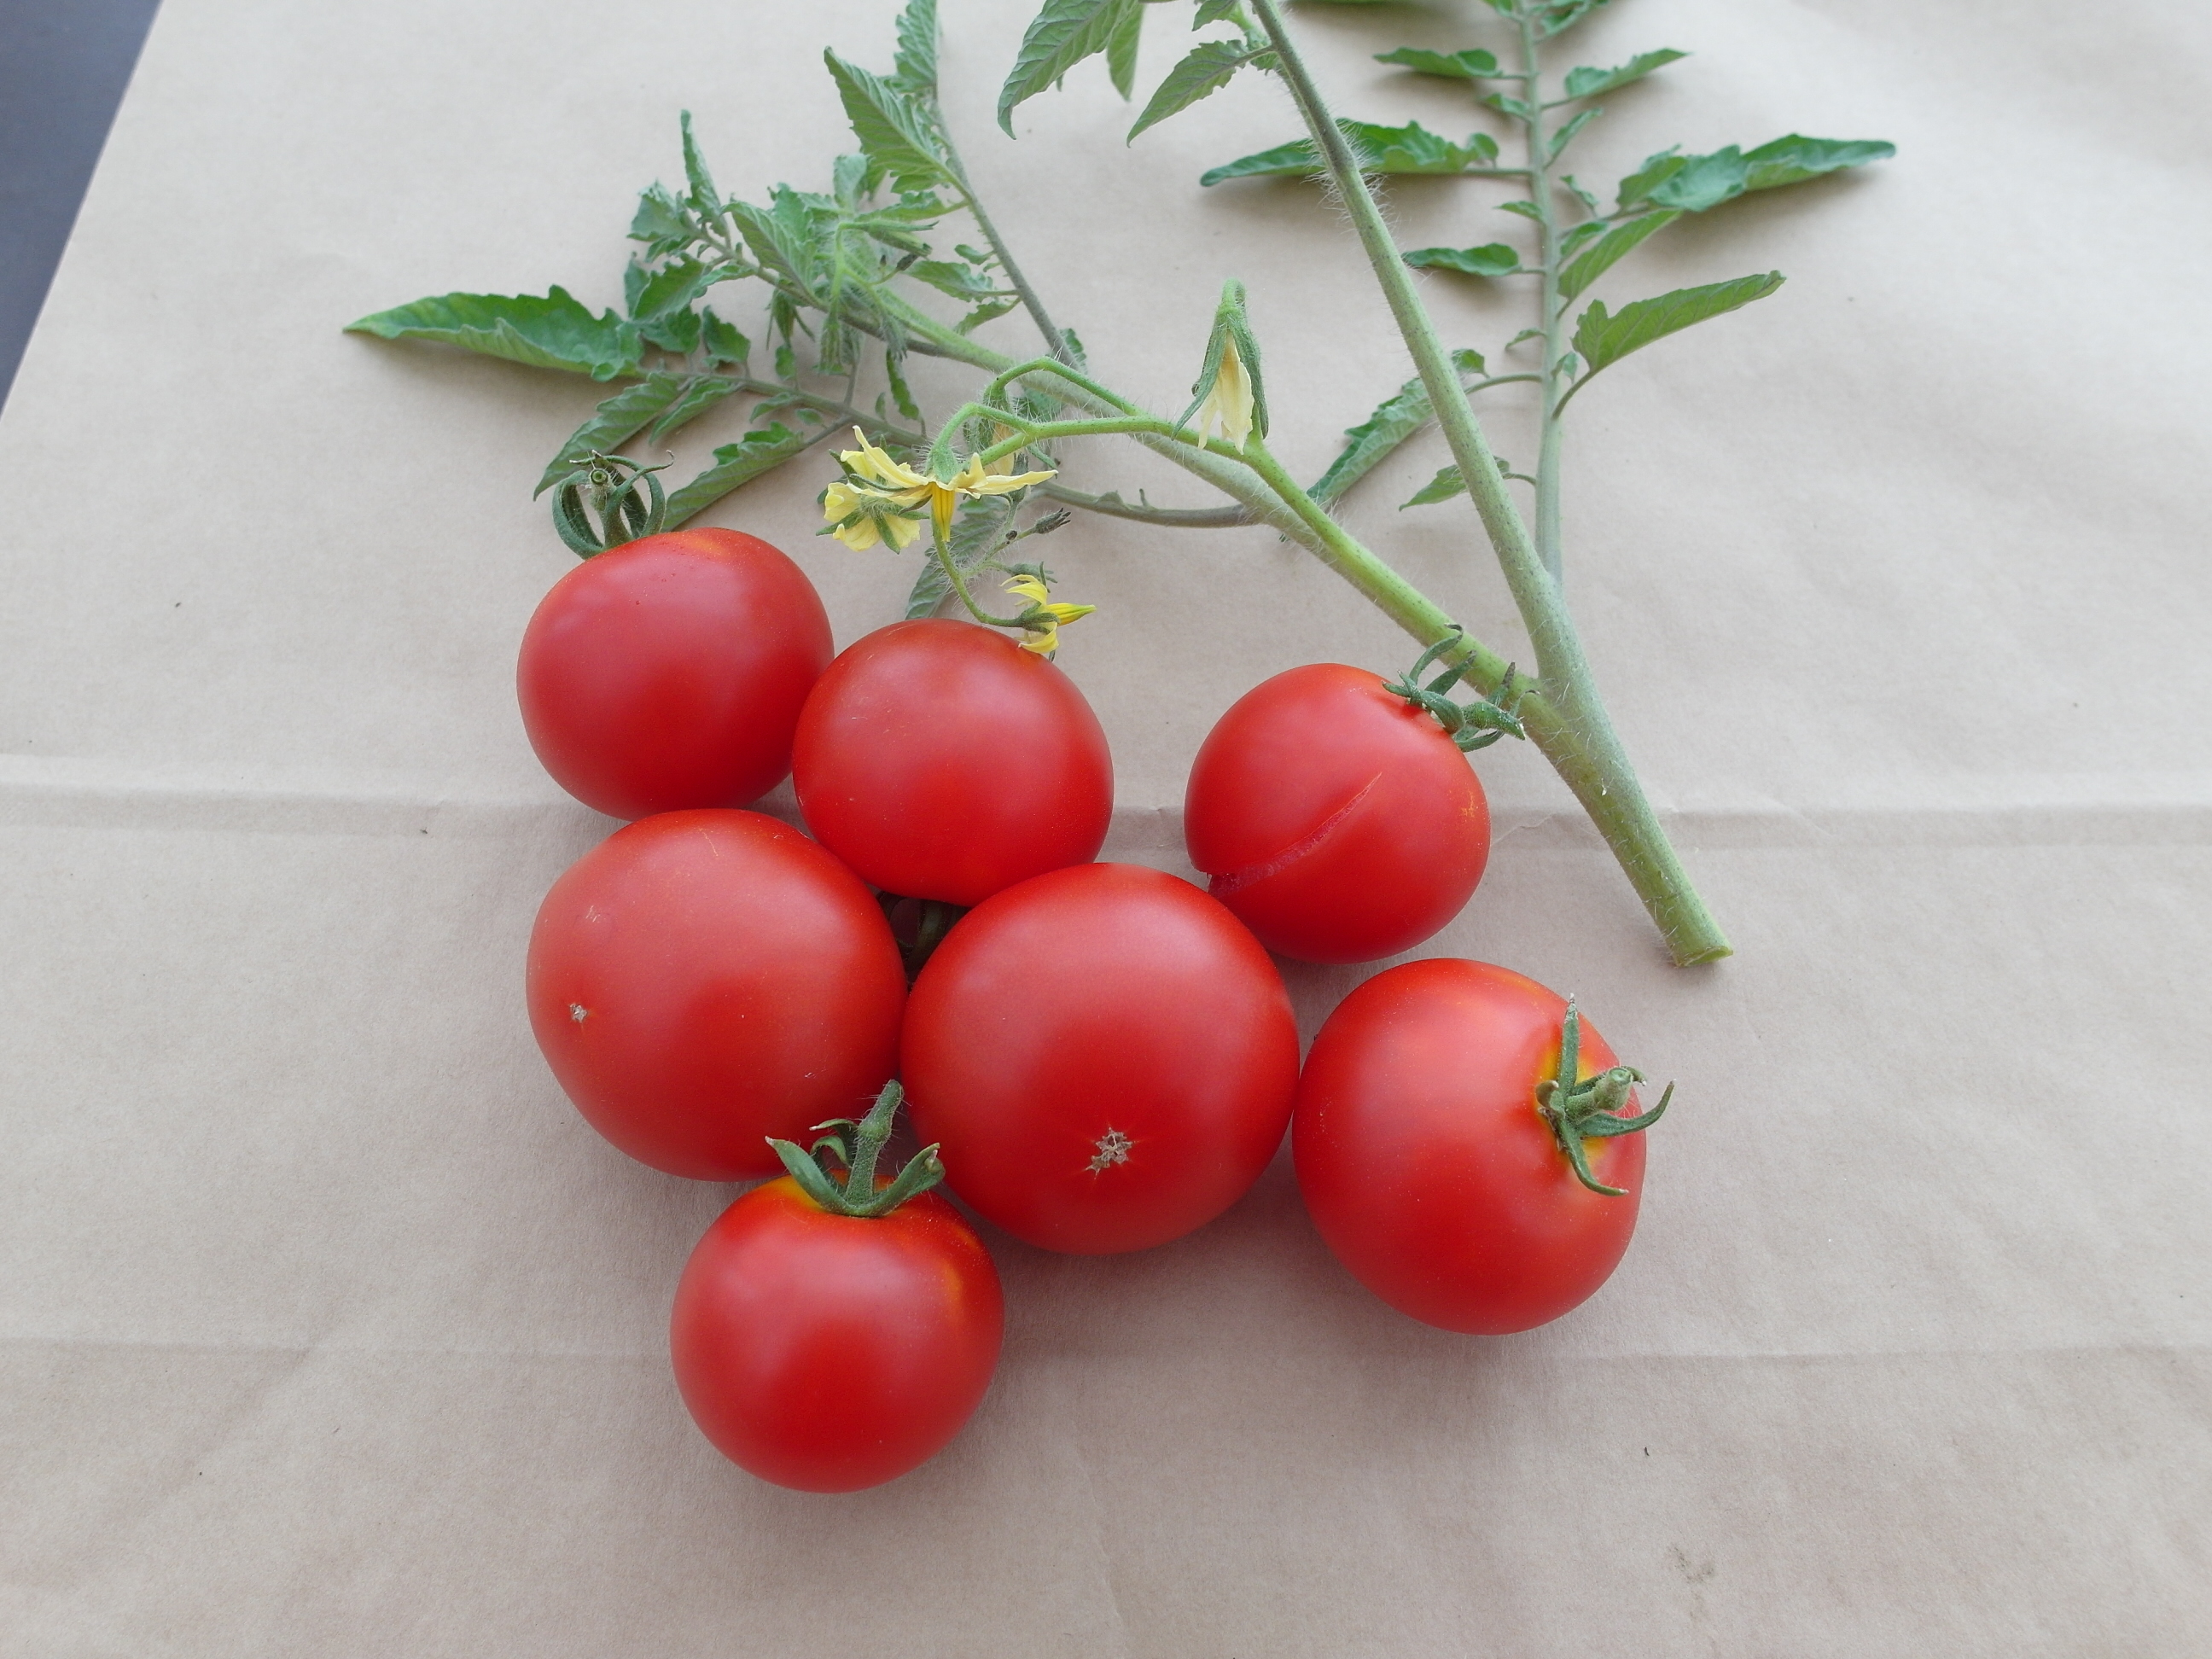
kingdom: Plantae
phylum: Tracheophyta
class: Magnoliopsida
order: Solanales
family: Solanaceae
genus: Solanum
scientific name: Solanum lycopersicum
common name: Garden tomato
